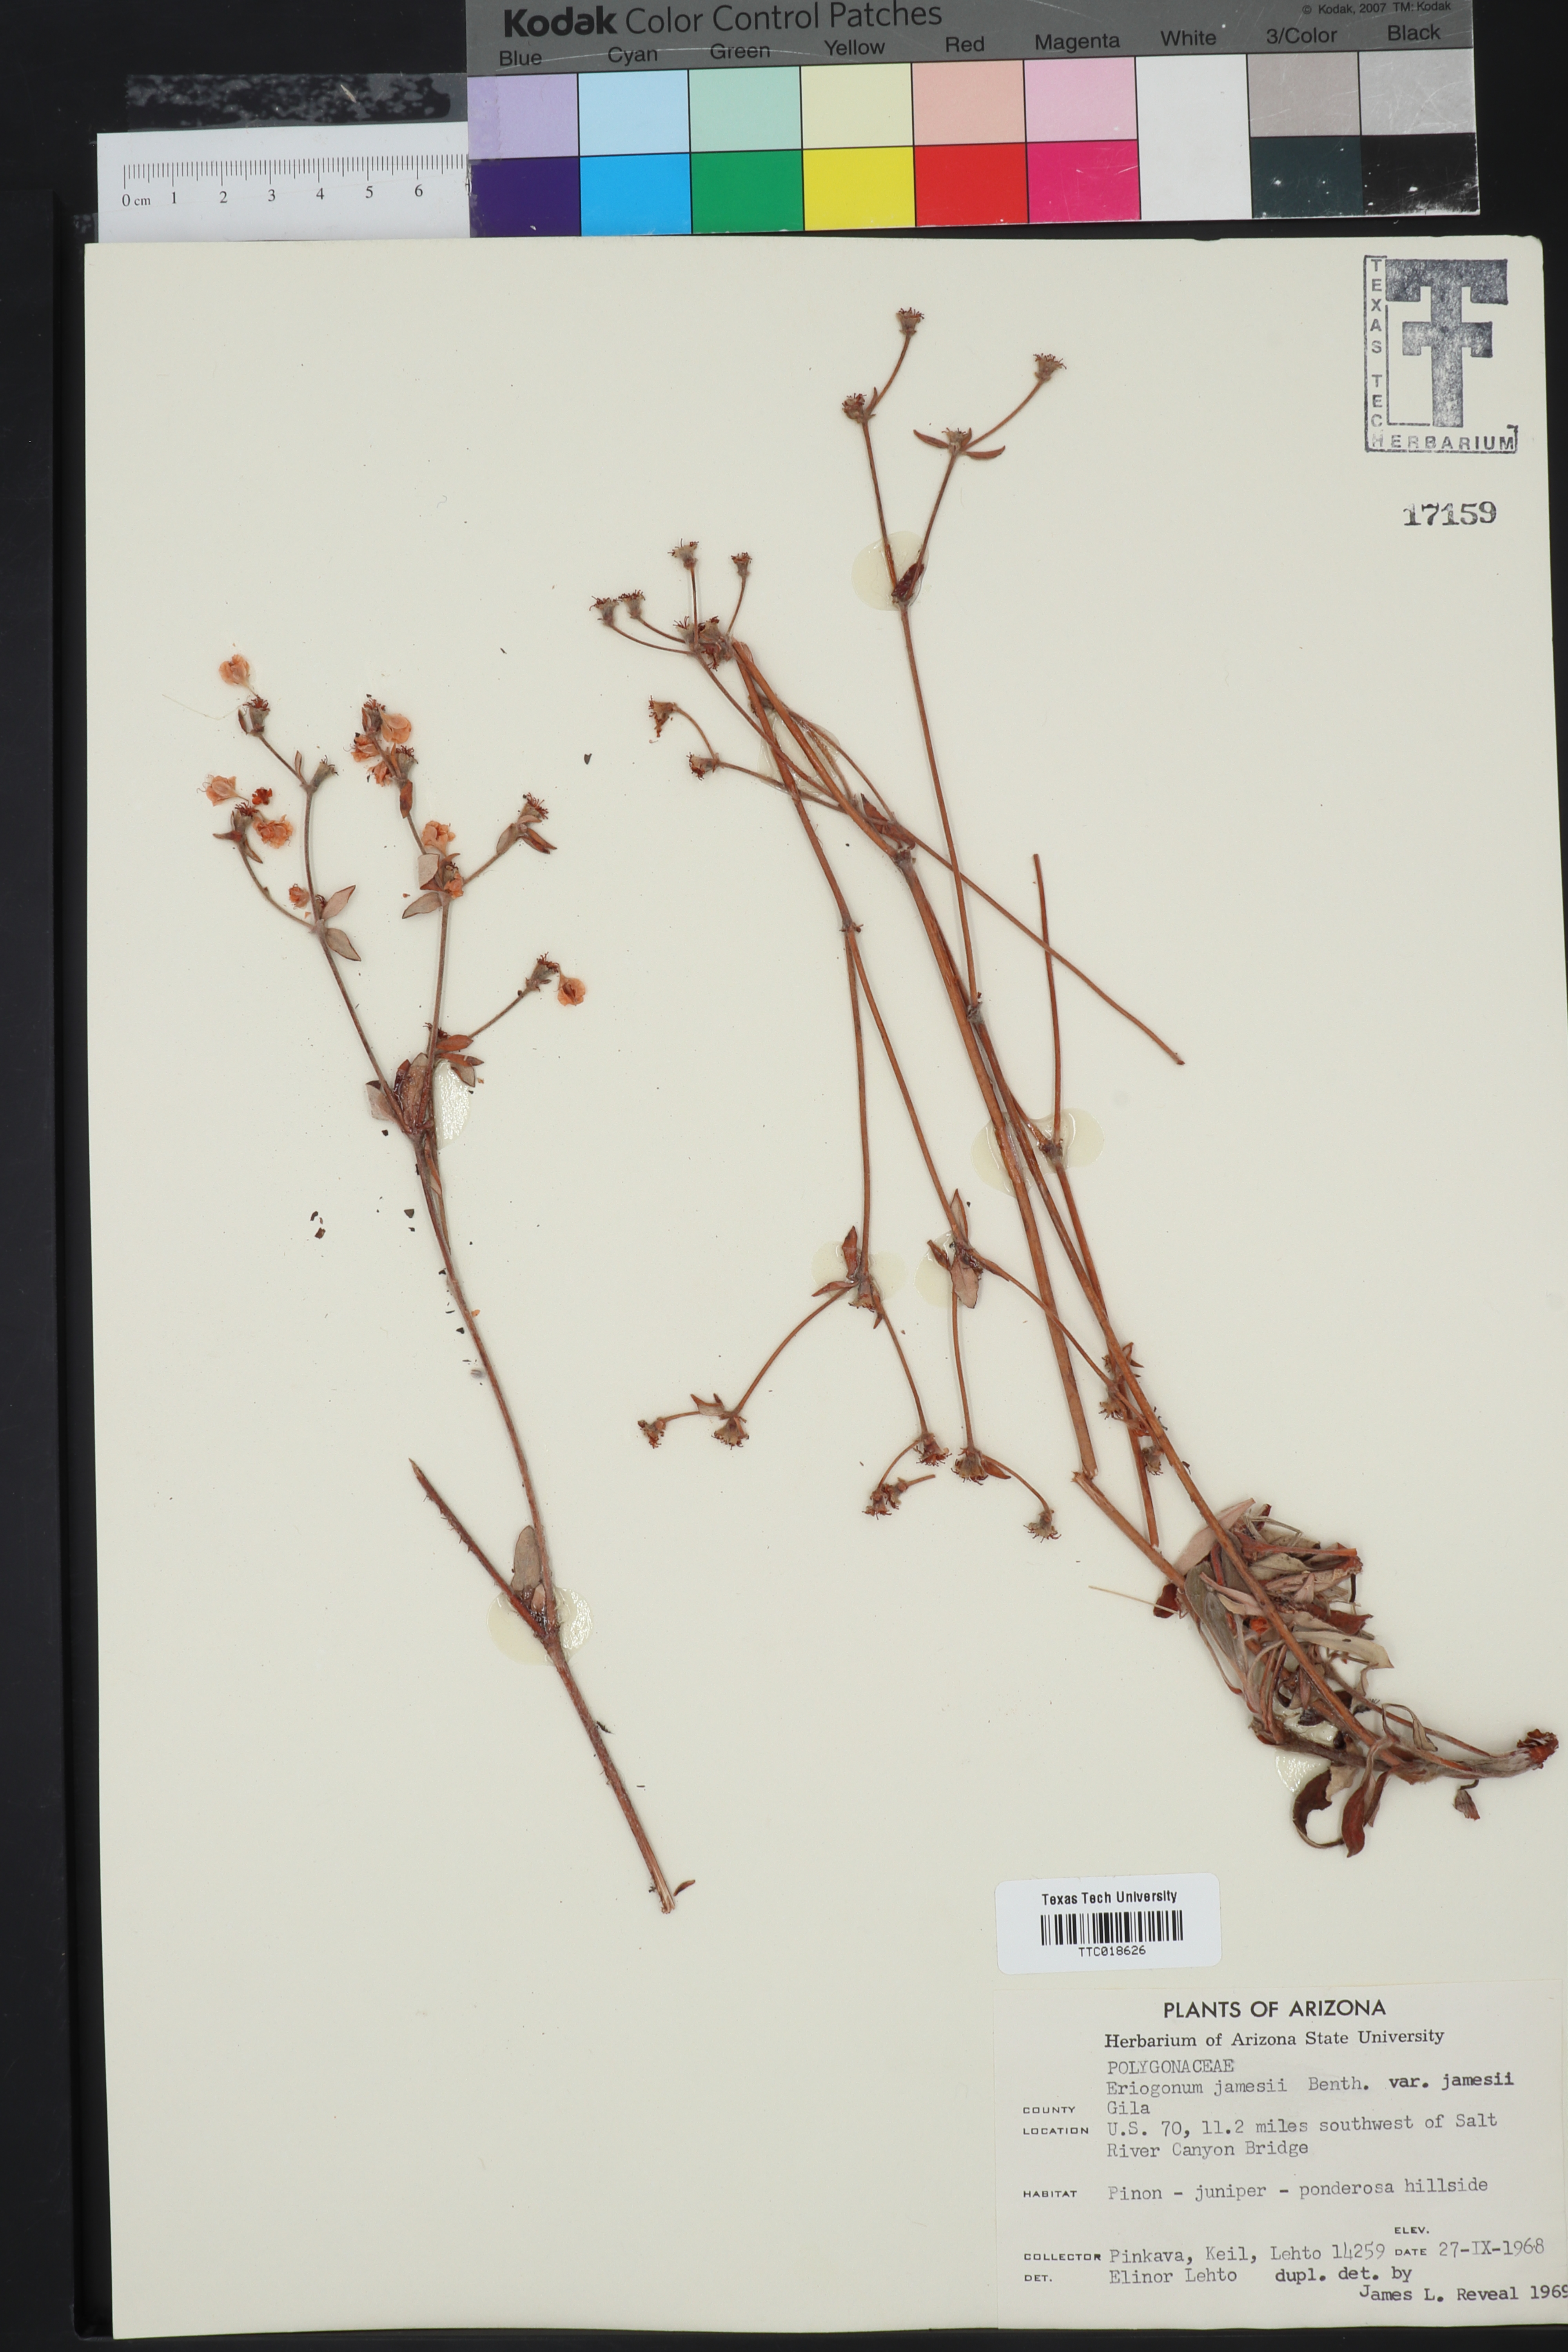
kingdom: Plantae
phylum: Tracheophyta
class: Magnoliopsida
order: Caryophyllales
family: Polygonaceae
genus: Eriogonum
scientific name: Eriogonum jamesii
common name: Antelope-sage
